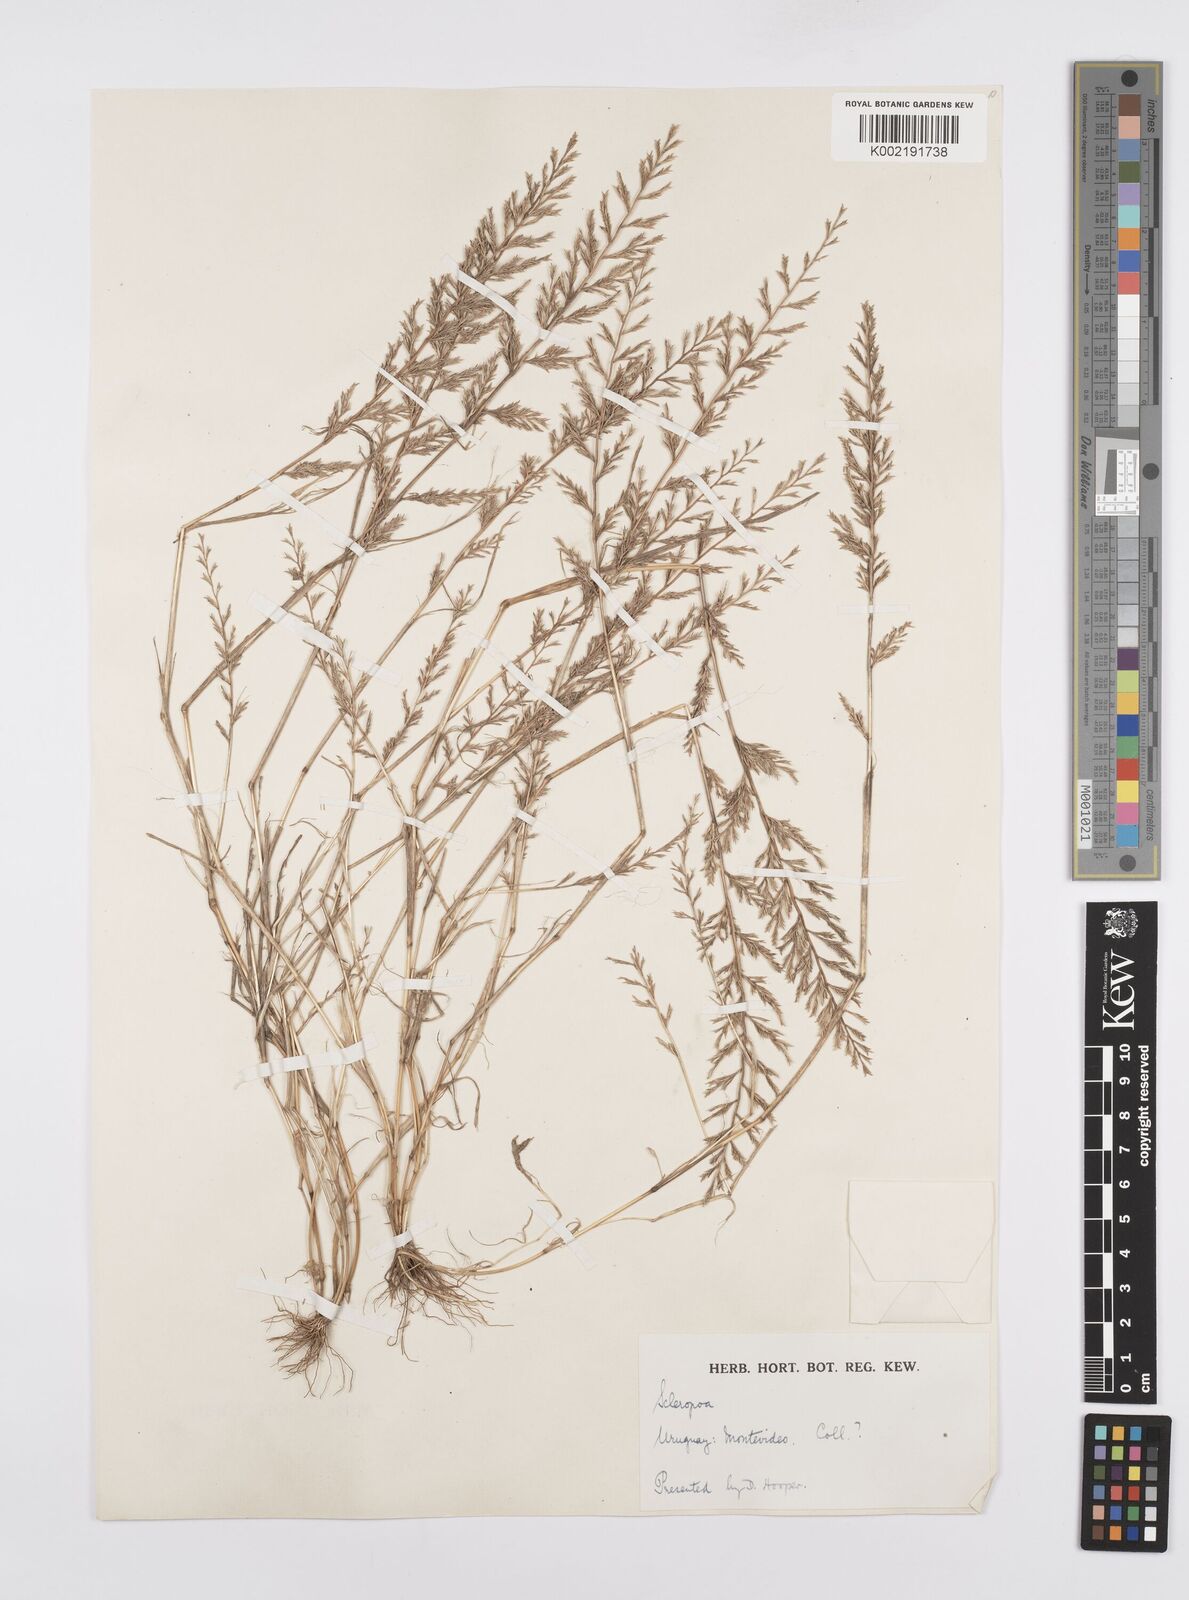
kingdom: Plantae
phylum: Tracheophyta
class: Liliopsida
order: Poales
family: Poaceae
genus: Catapodium
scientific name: Catapodium rigidum
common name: Fern-grass
